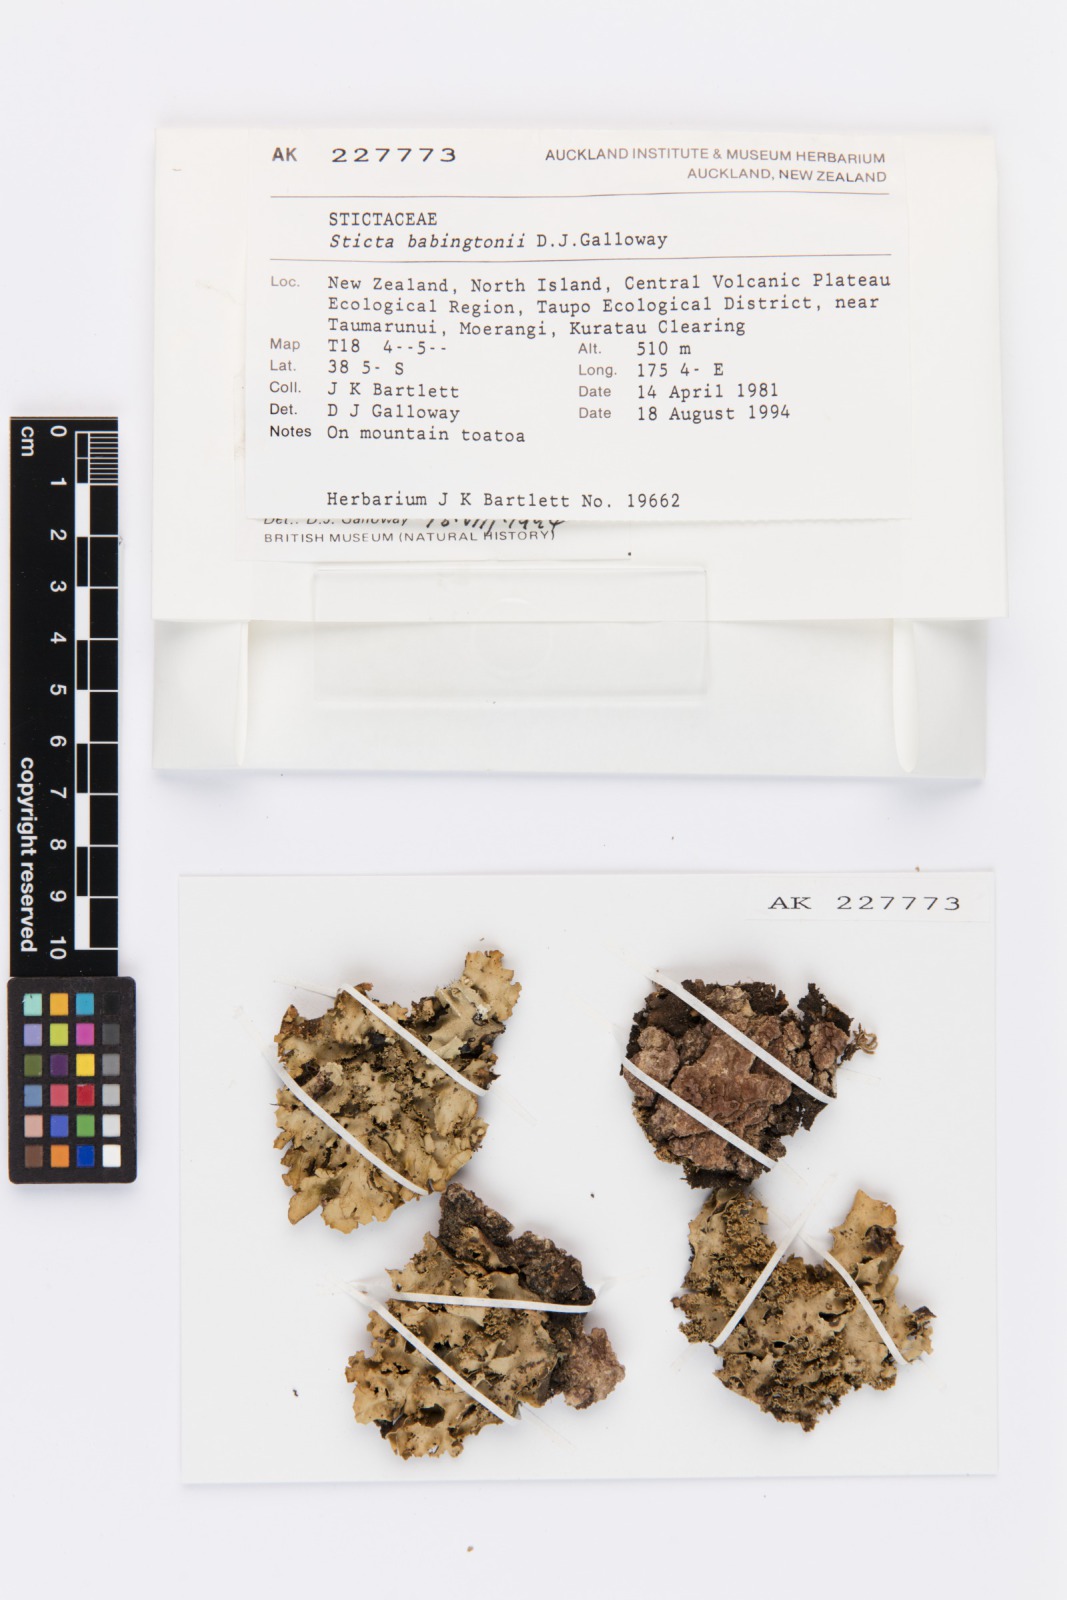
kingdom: Fungi
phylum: Ascomycota
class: Lecanoromycetes
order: Peltigerales
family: Lobariaceae
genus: Sticta
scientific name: Sticta babingtonii
